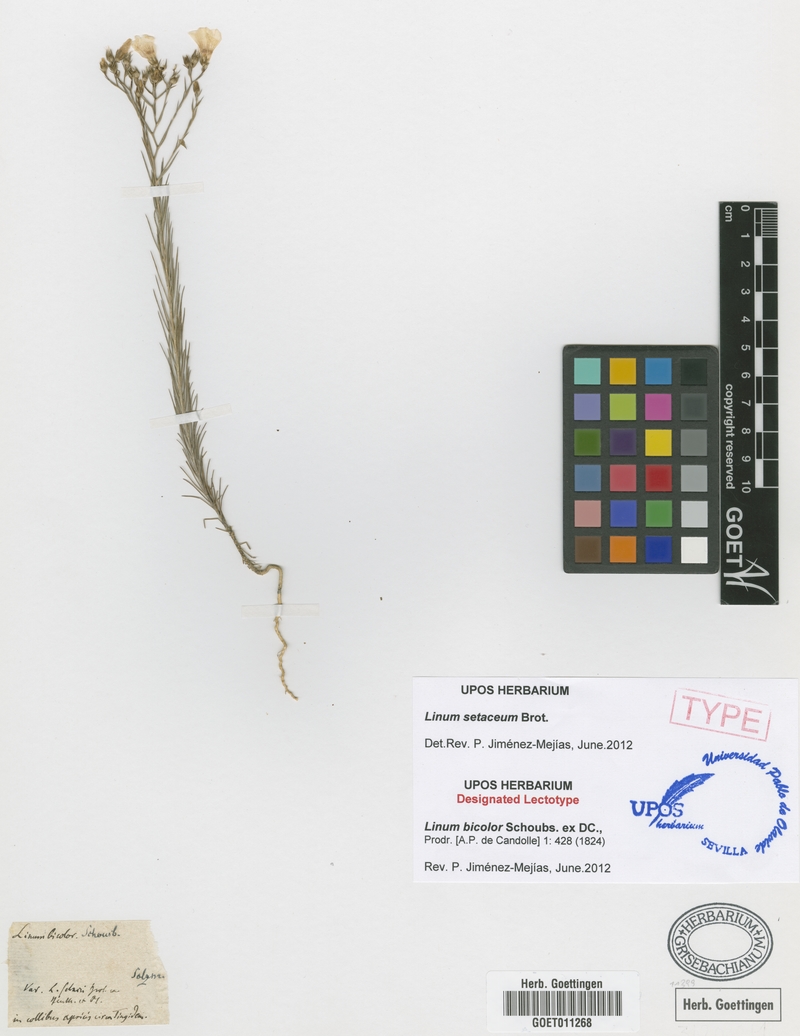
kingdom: Plantae
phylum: Tracheophyta
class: Magnoliopsida
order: Malpighiales
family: Linaceae
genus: Linum
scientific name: Linum setaceum
